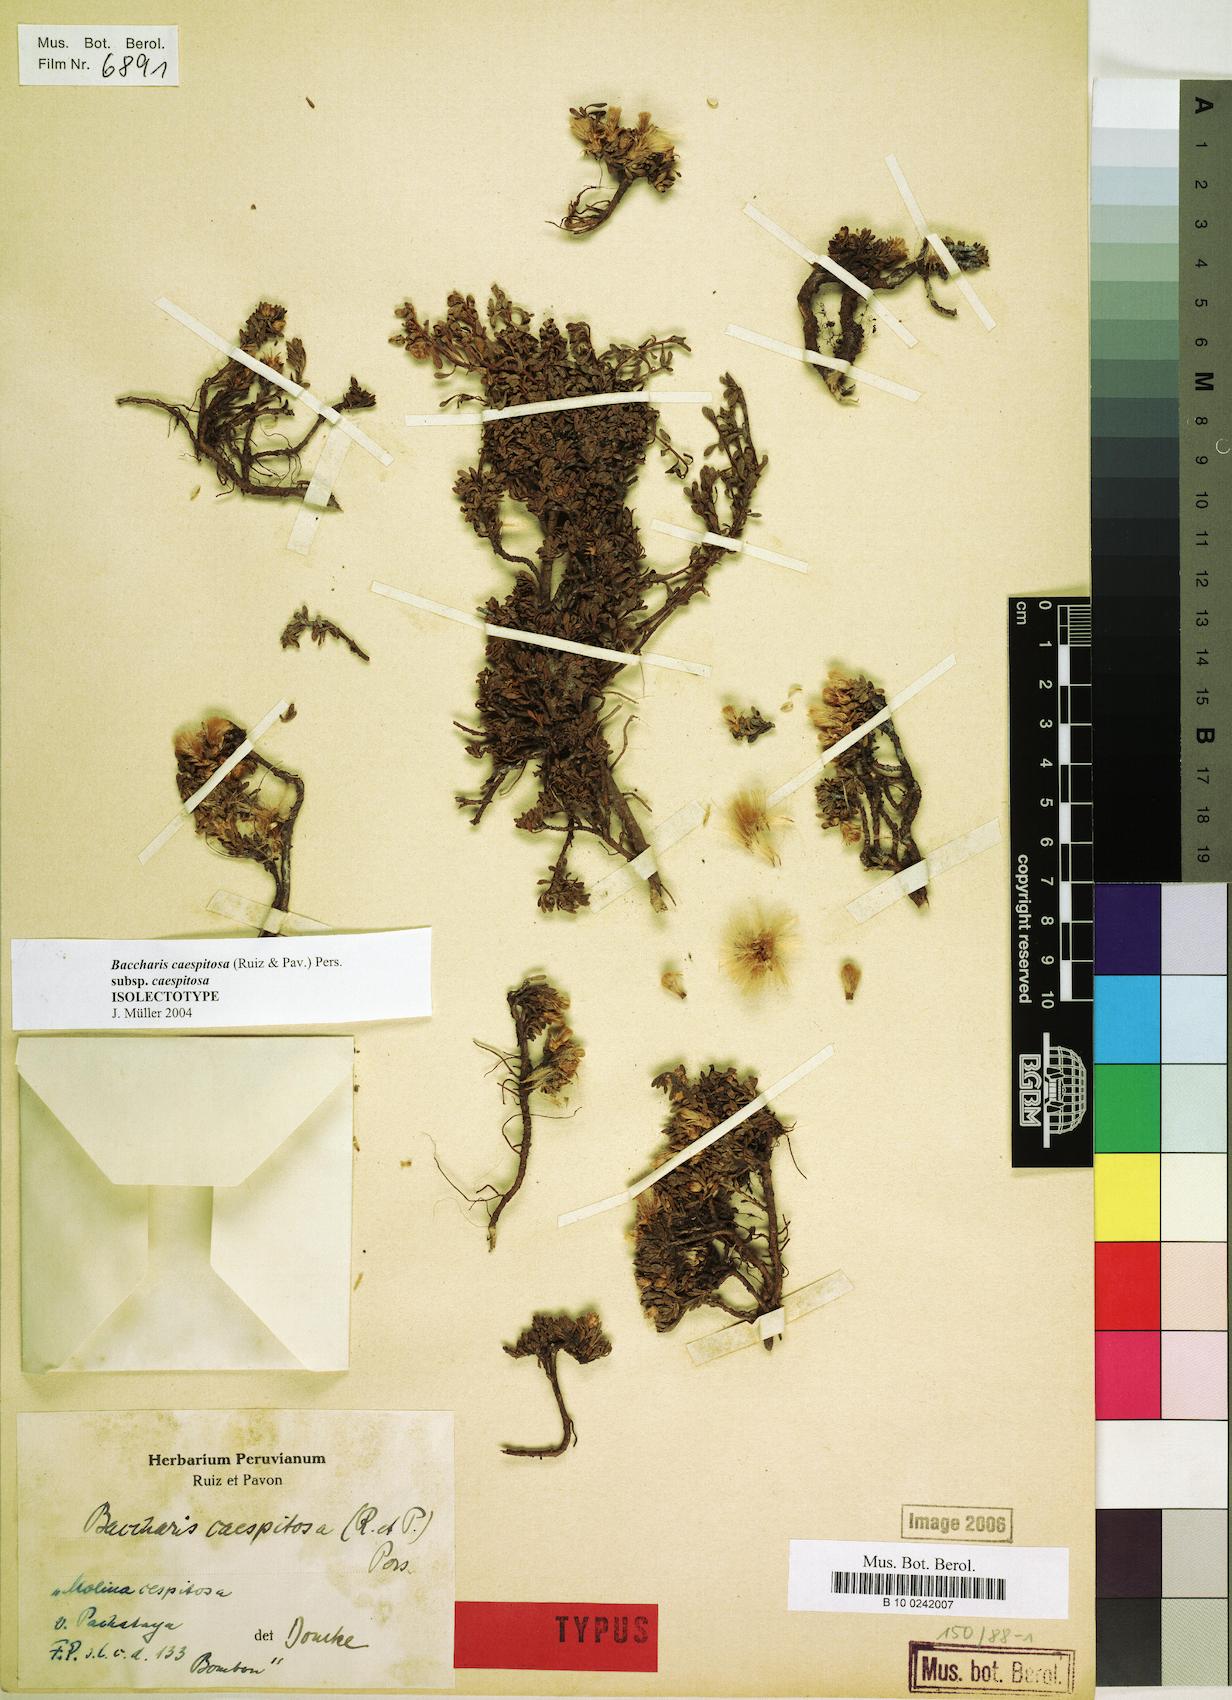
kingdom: Plantae
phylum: Tracheophyta
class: Magnoliopsida
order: Asterales
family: Asteraceae
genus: Baccharis
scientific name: Baccharis caespitosa
